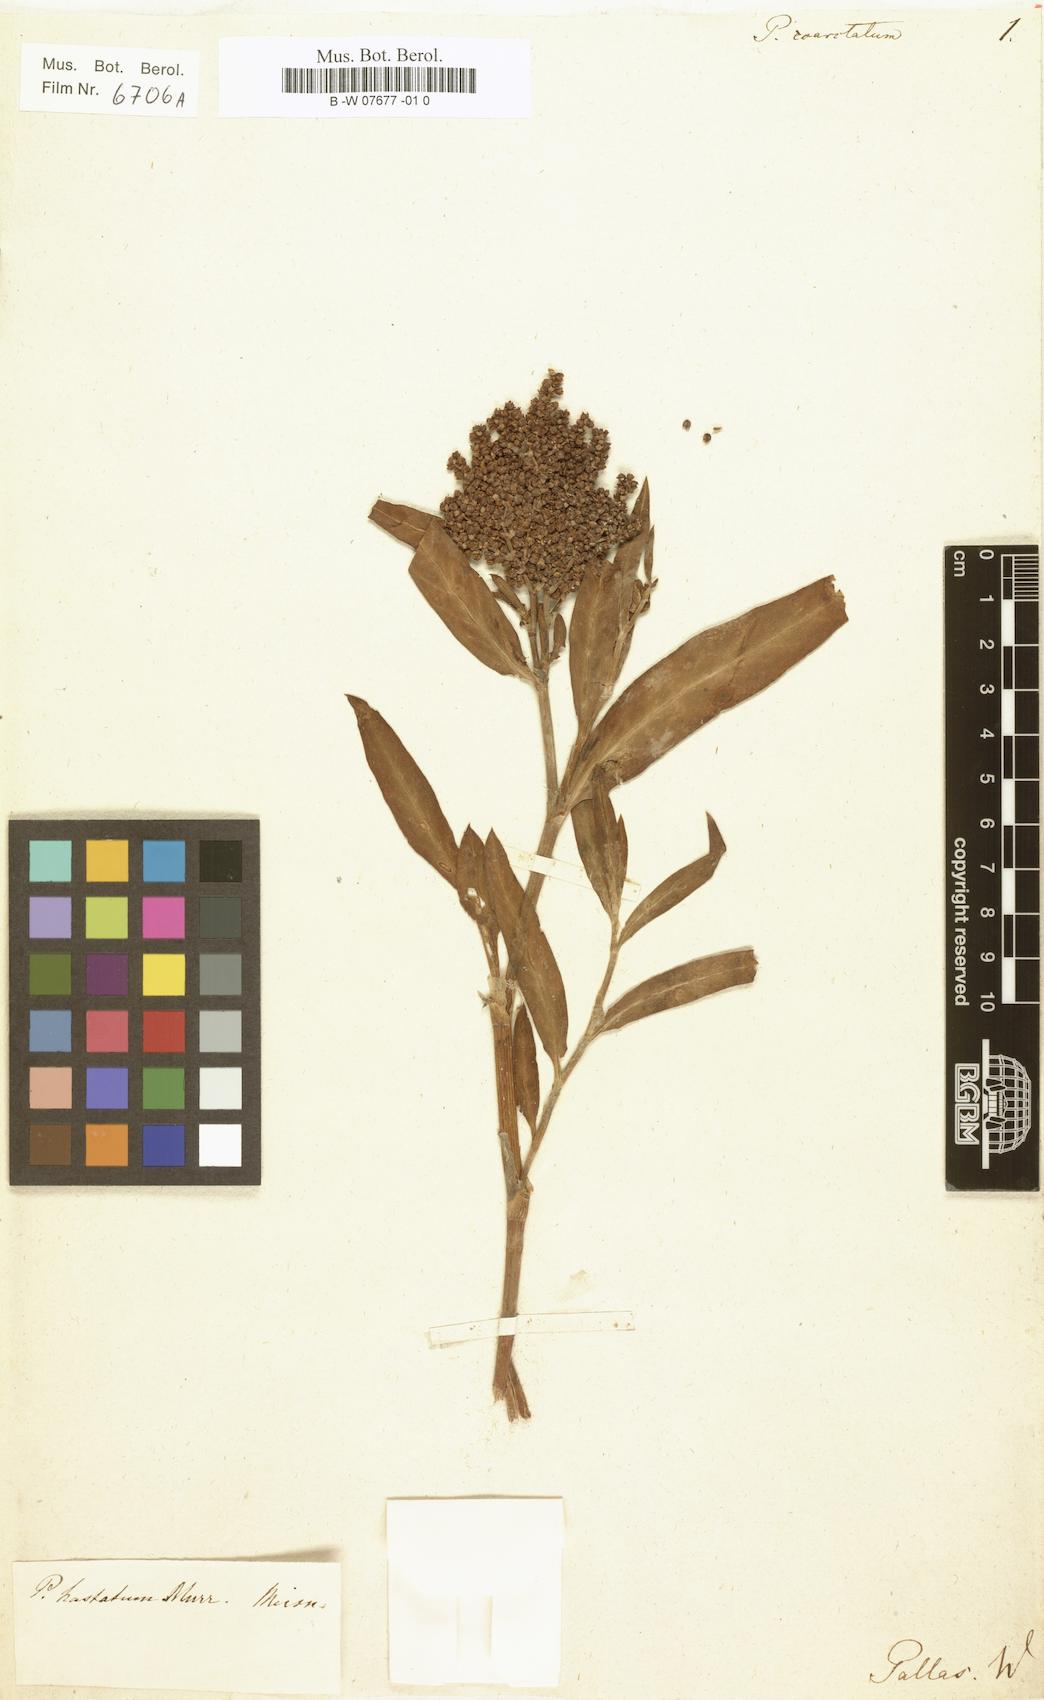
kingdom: Plantae
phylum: Tracheophyta
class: Magnoliopsida
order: Caryophyllales
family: Polygonaceae
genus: Polygonum
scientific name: Polygonum coarctatum
